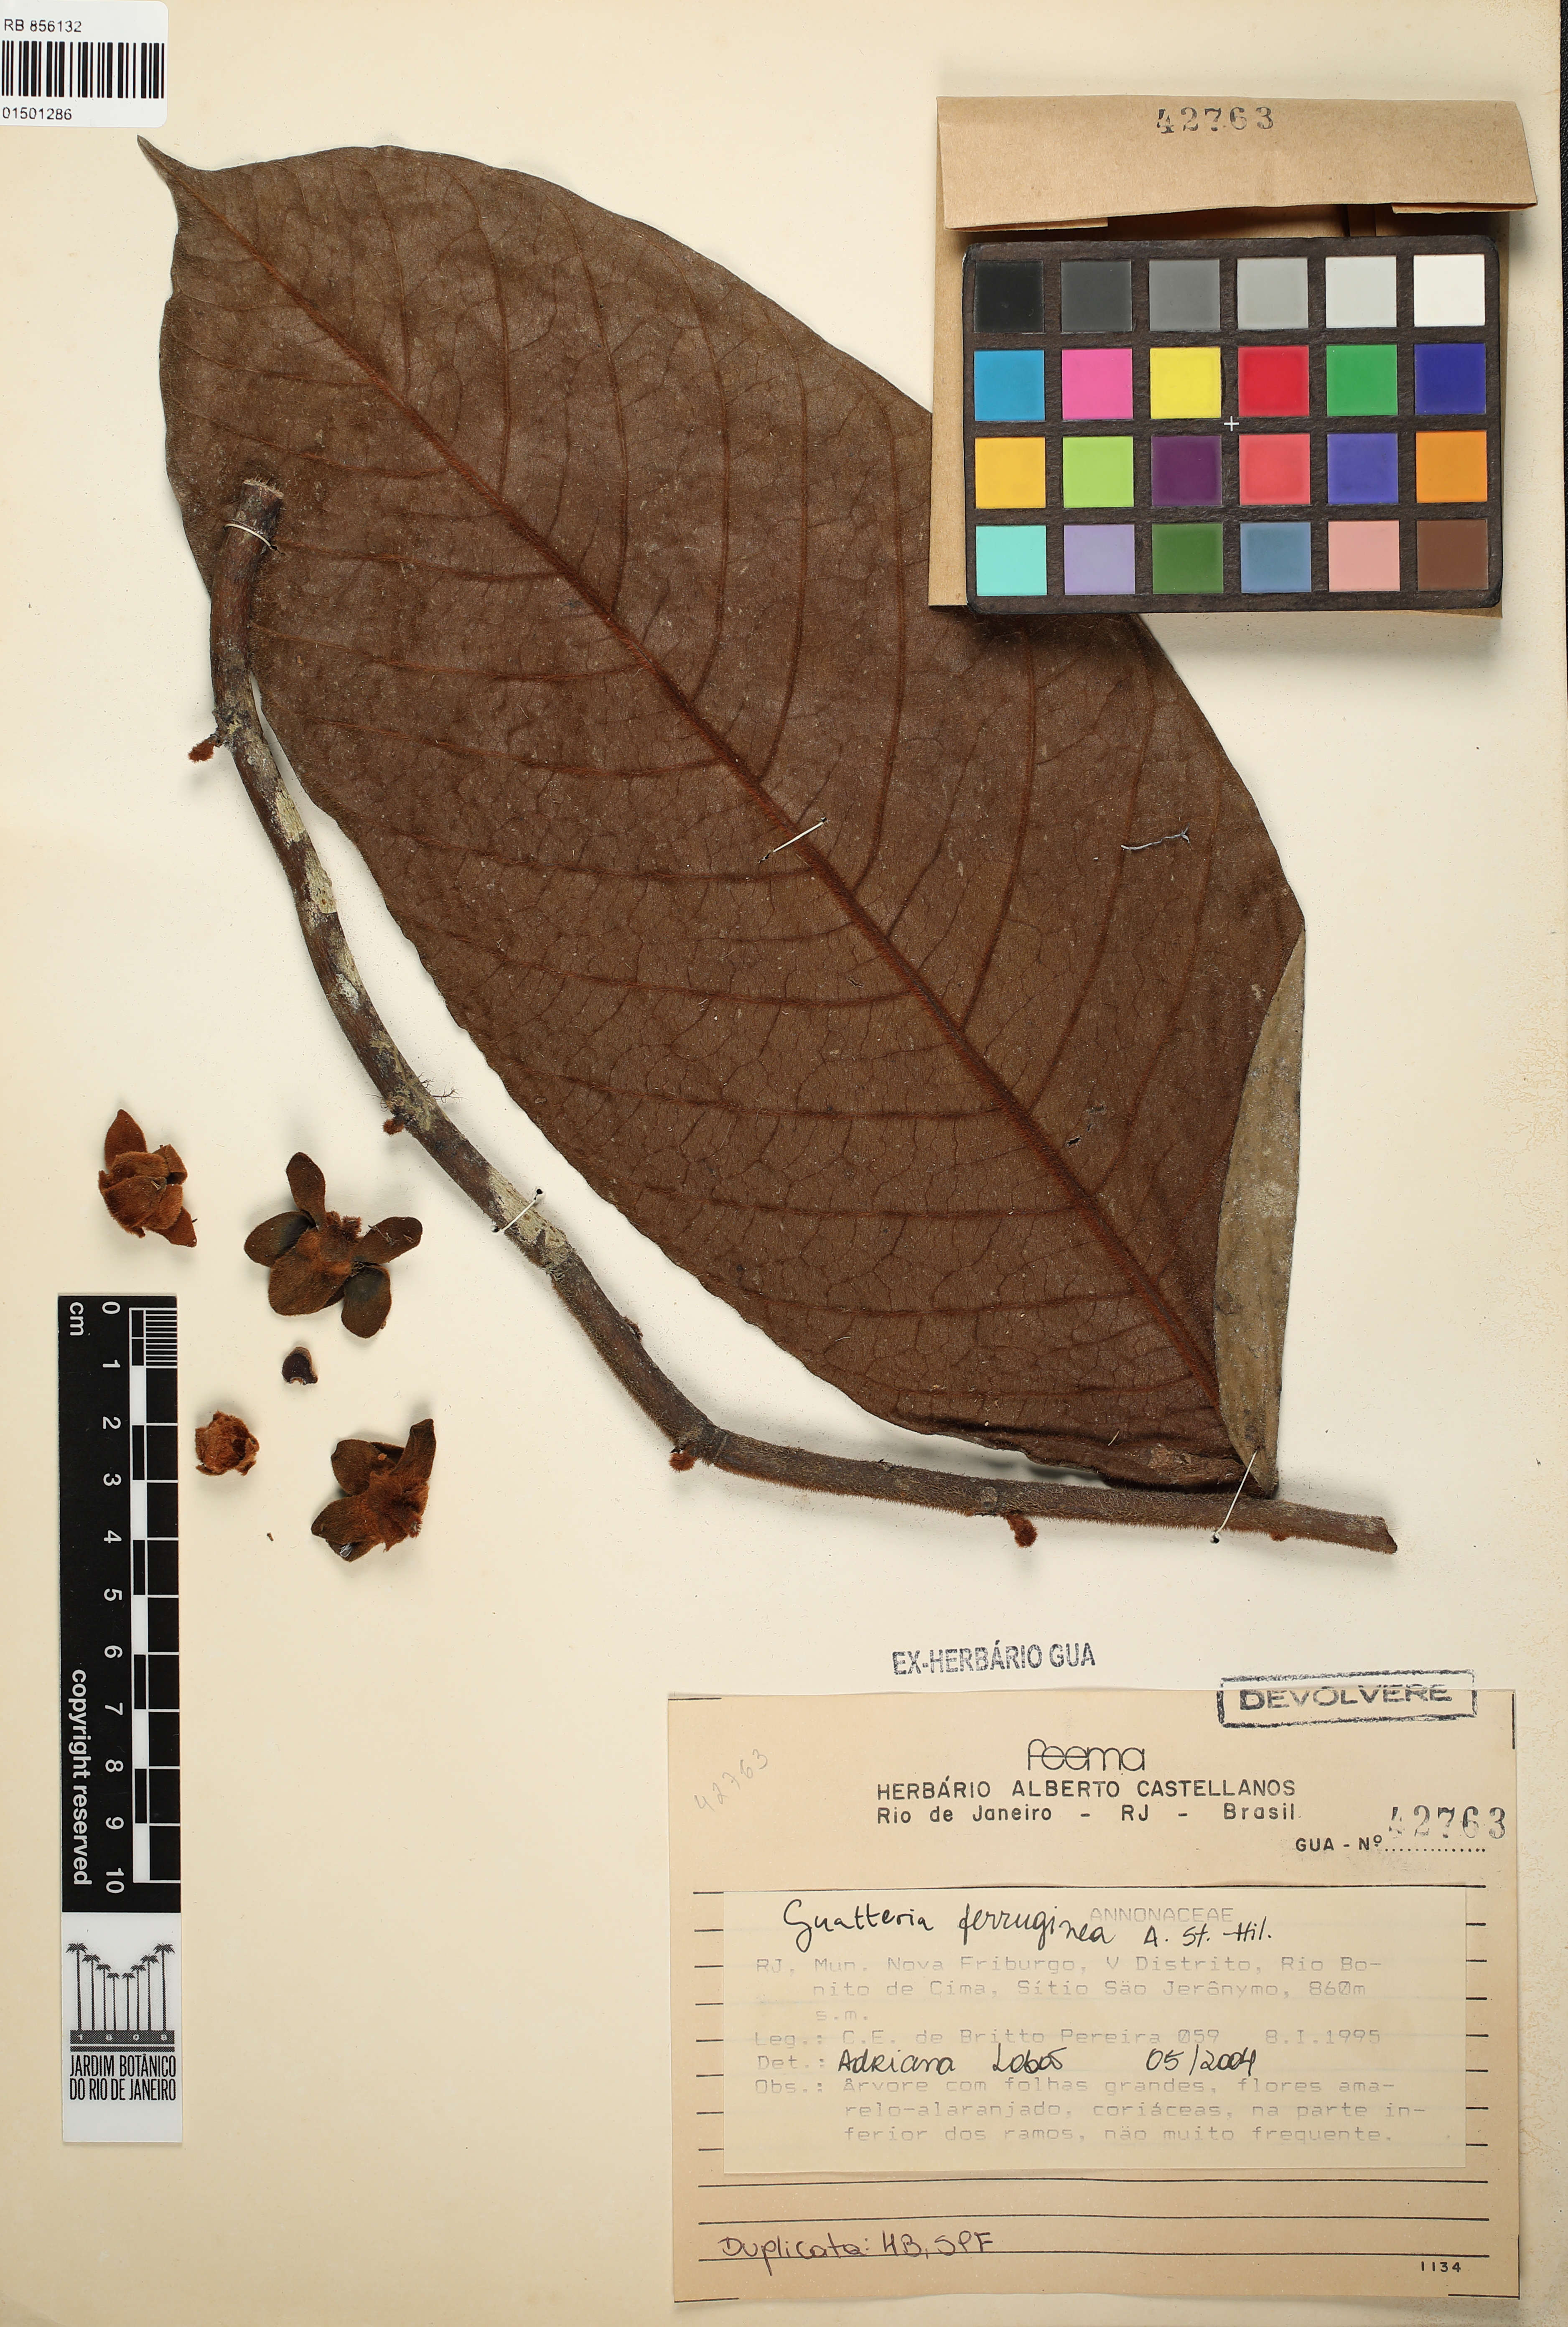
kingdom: Plantae
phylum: Tracheophyta
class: Magnoliopsida
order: Magnoliales
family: Annonaceae
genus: Guatteria
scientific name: Guatteria ferruginea
